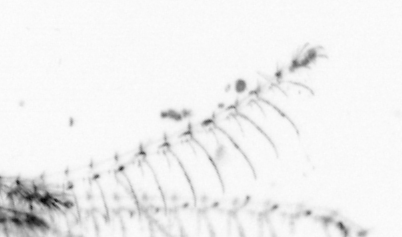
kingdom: Animalia
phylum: Arthropoda
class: Maxillopoda
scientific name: Maxillopoda
